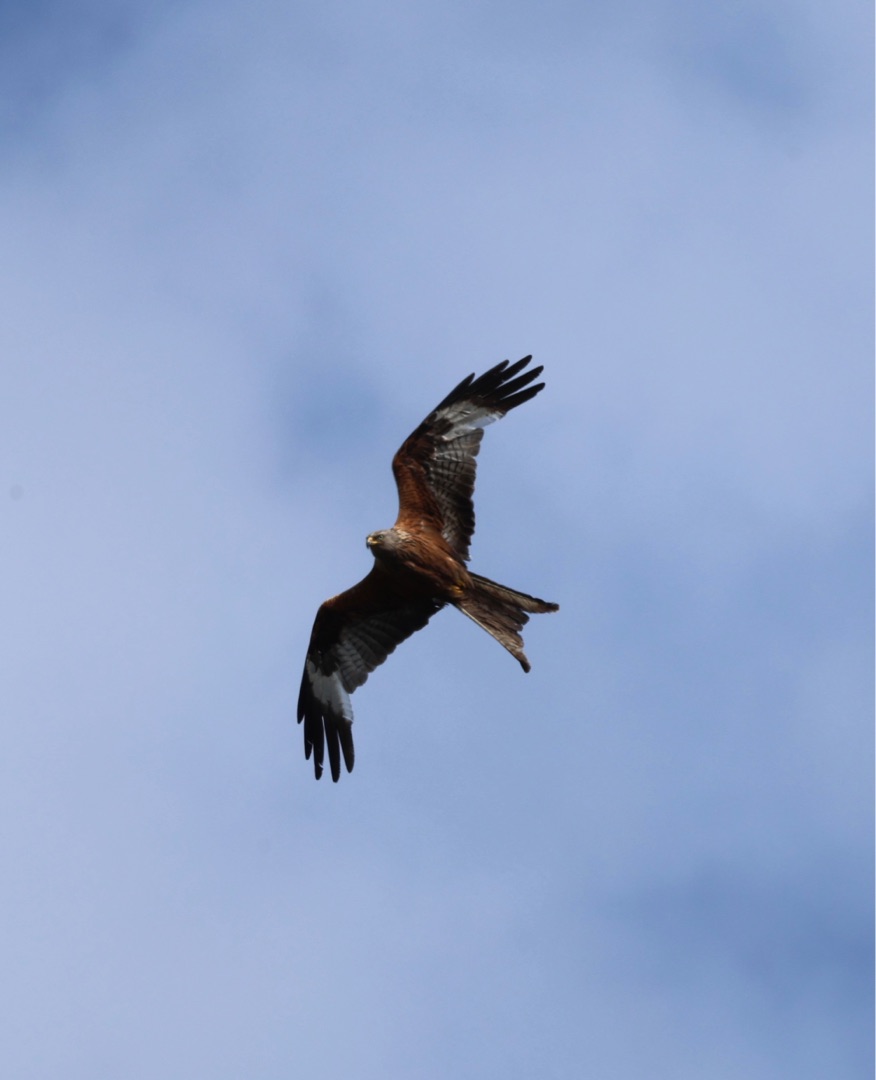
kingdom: Animalia
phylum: Chordata
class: Aves
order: Accipitriformes
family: Accipitridae
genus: Milvus
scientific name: Milvus milvus
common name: Rød glente
